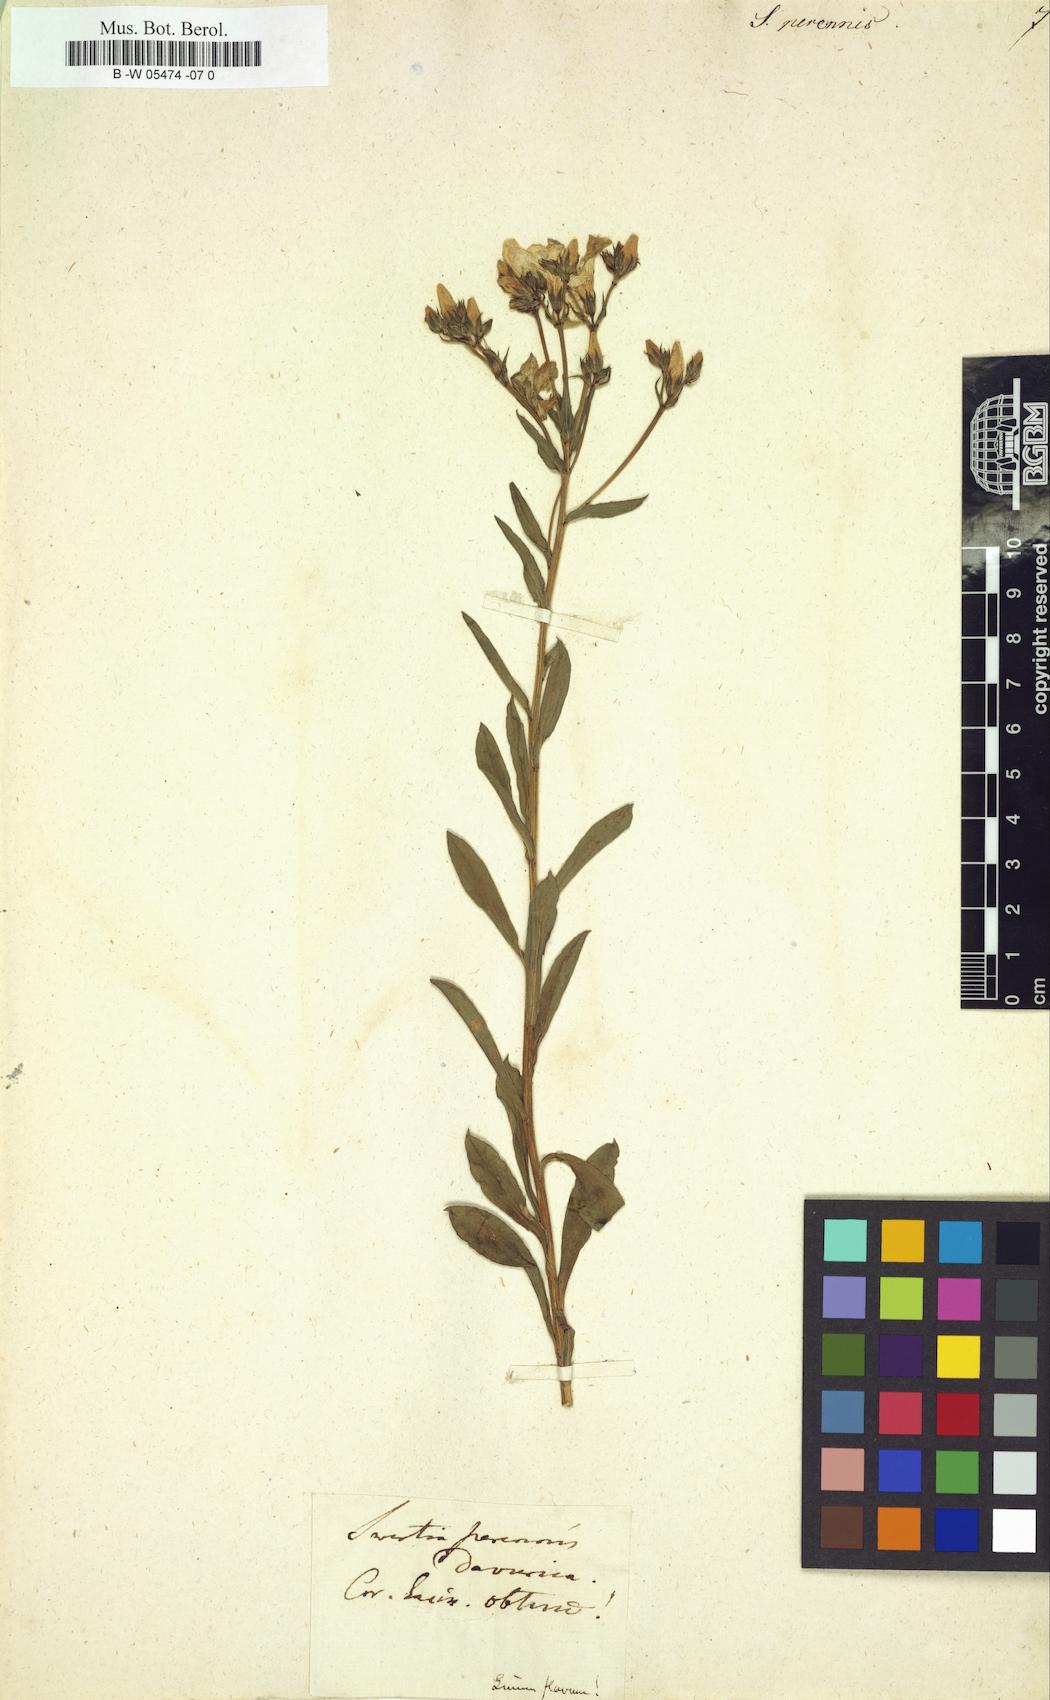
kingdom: Plantae
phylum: Tracheophyta
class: Magnoliopsida
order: Gentianales
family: Gentianaceae
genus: Swertia
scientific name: Swertia perennis
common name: Alpine bog swertia
